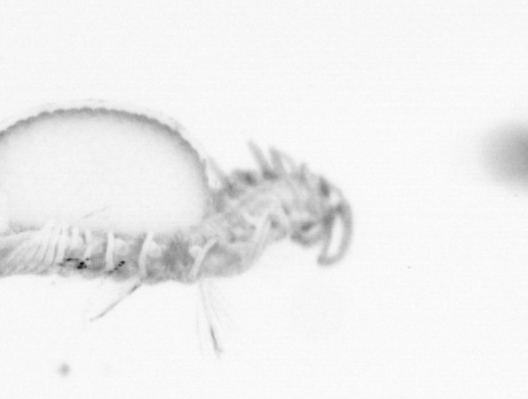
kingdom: Animalia
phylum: Annelida
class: Polychaeta
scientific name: Polychaeta
